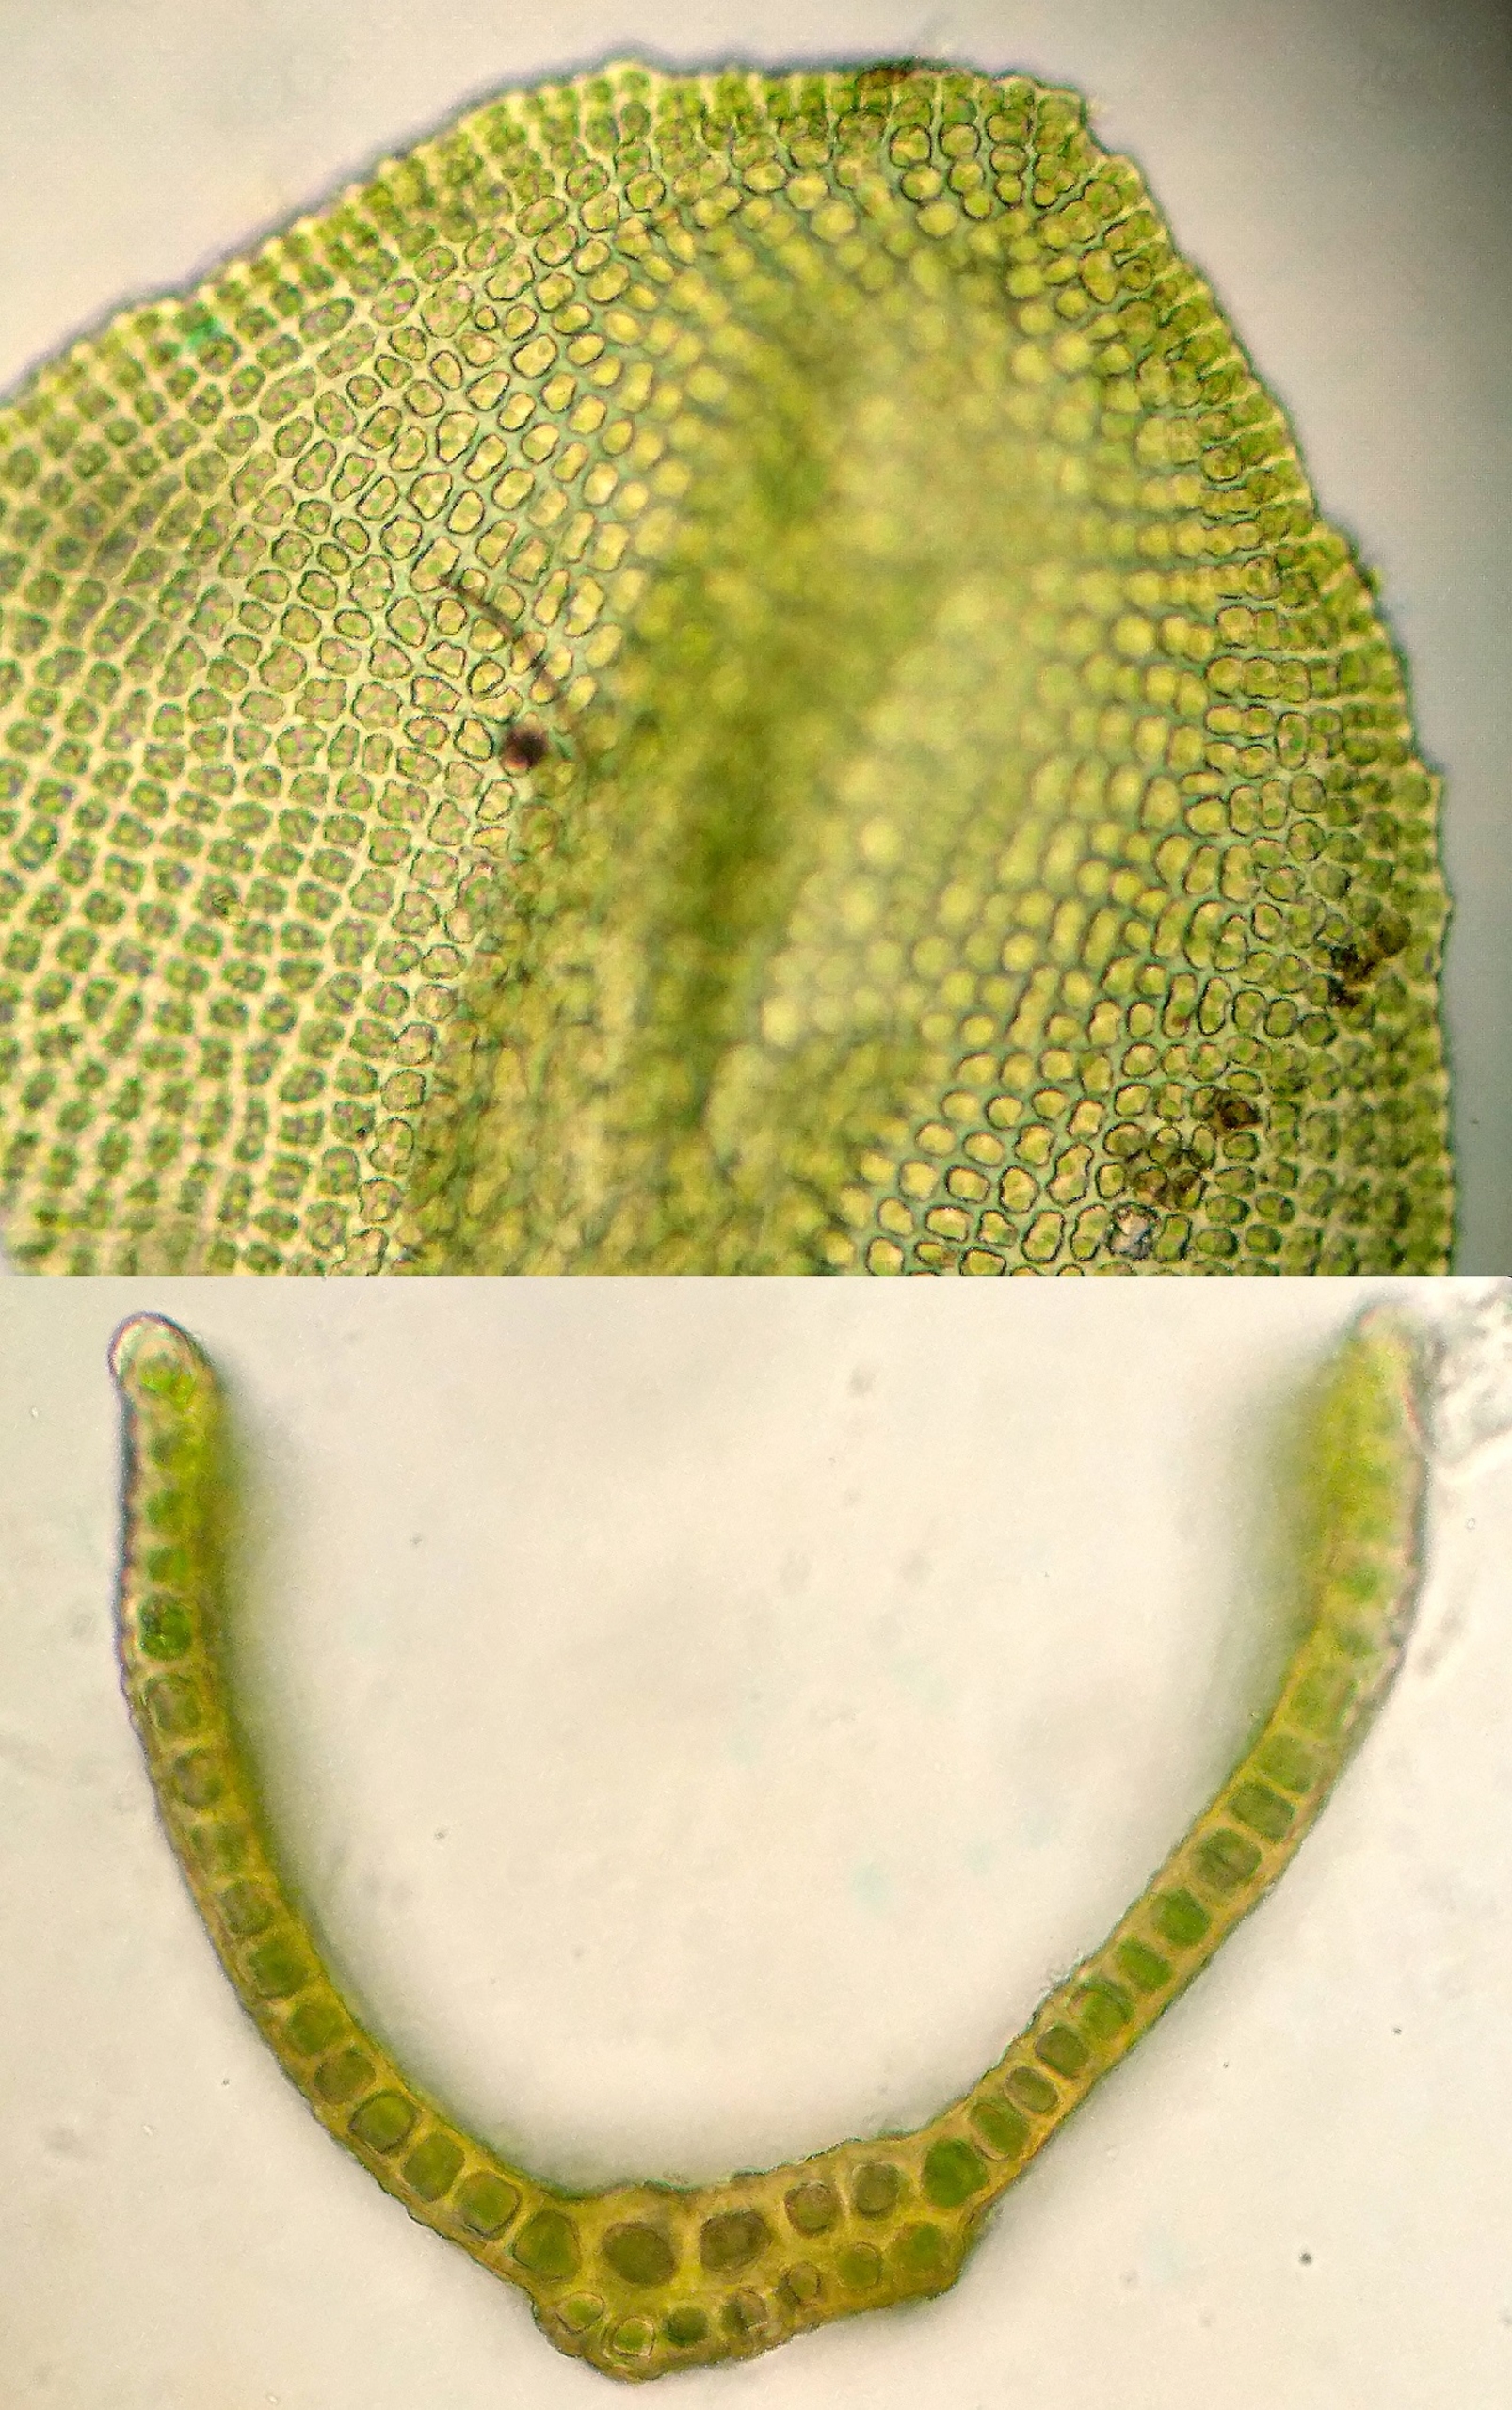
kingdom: Plantae
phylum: Bryophyta
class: Bryopsida
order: Grimmiales
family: Grimmiaceae
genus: Codriophorus
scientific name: Codriophorus acicularis
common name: Butbladet børstemos
